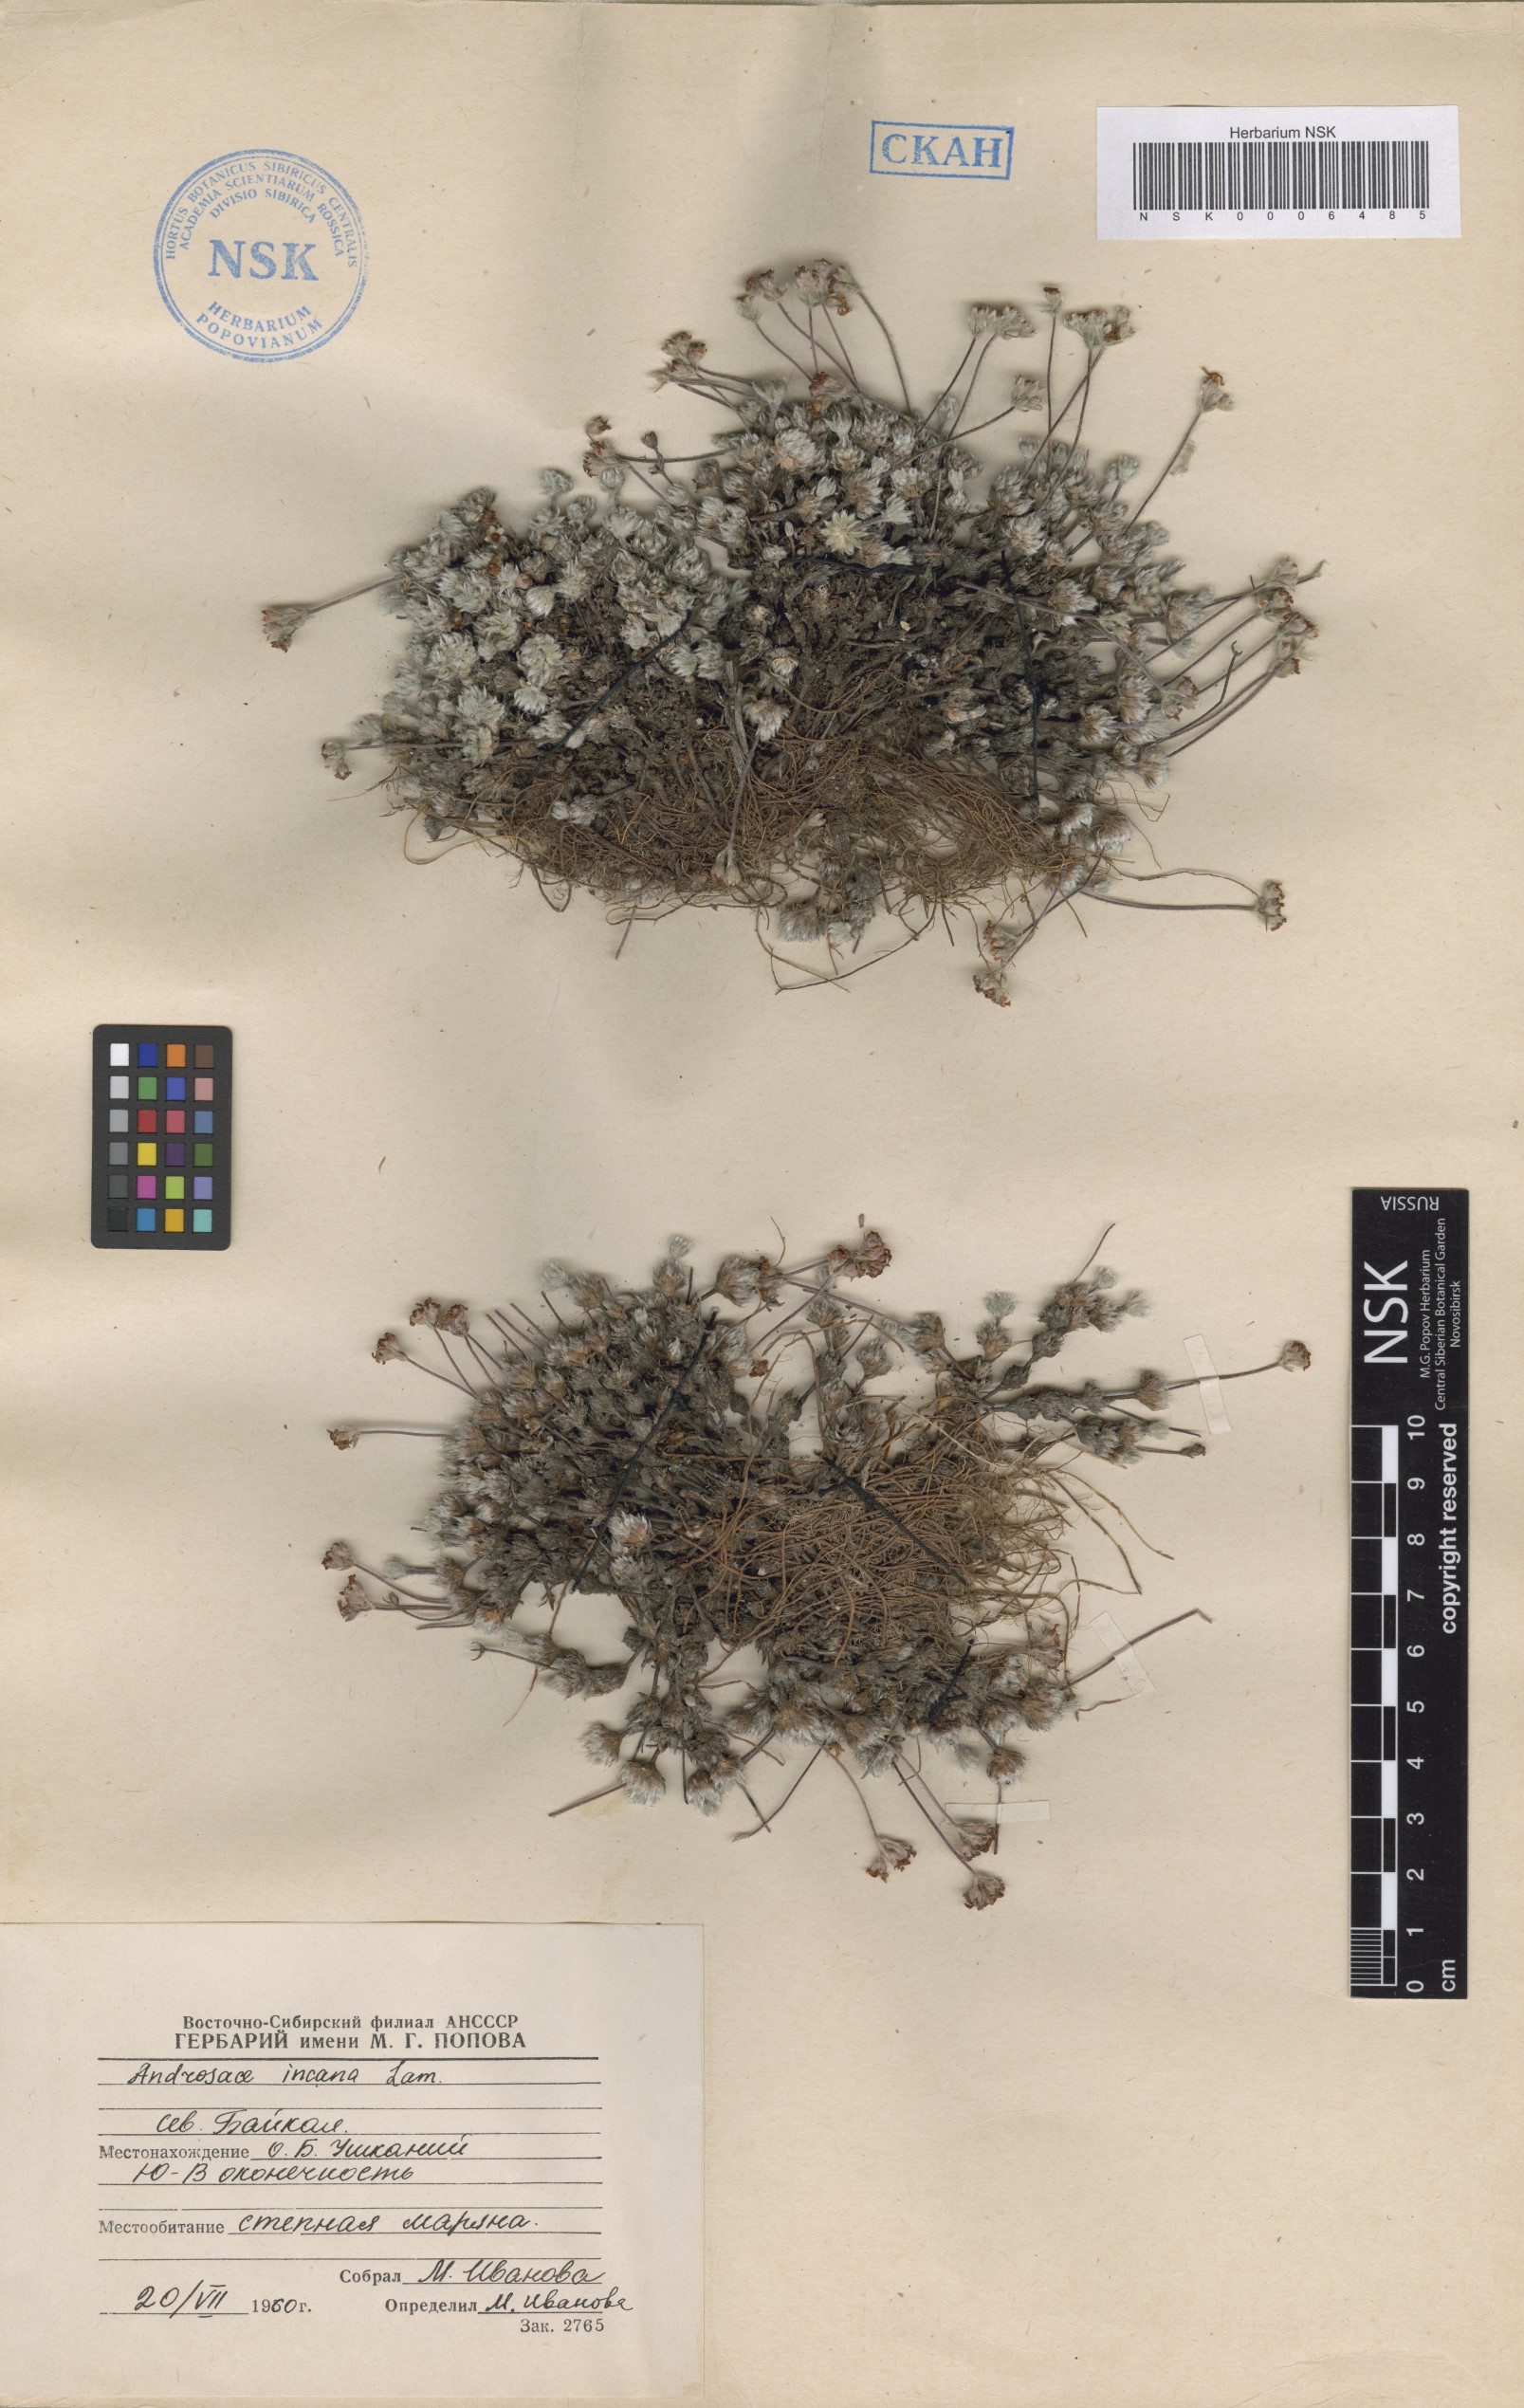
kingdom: Plantae
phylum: Tracheophyta
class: Magnoliopsida
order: Ericales
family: Primulaceae
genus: Androsace
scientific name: Androsace incana
